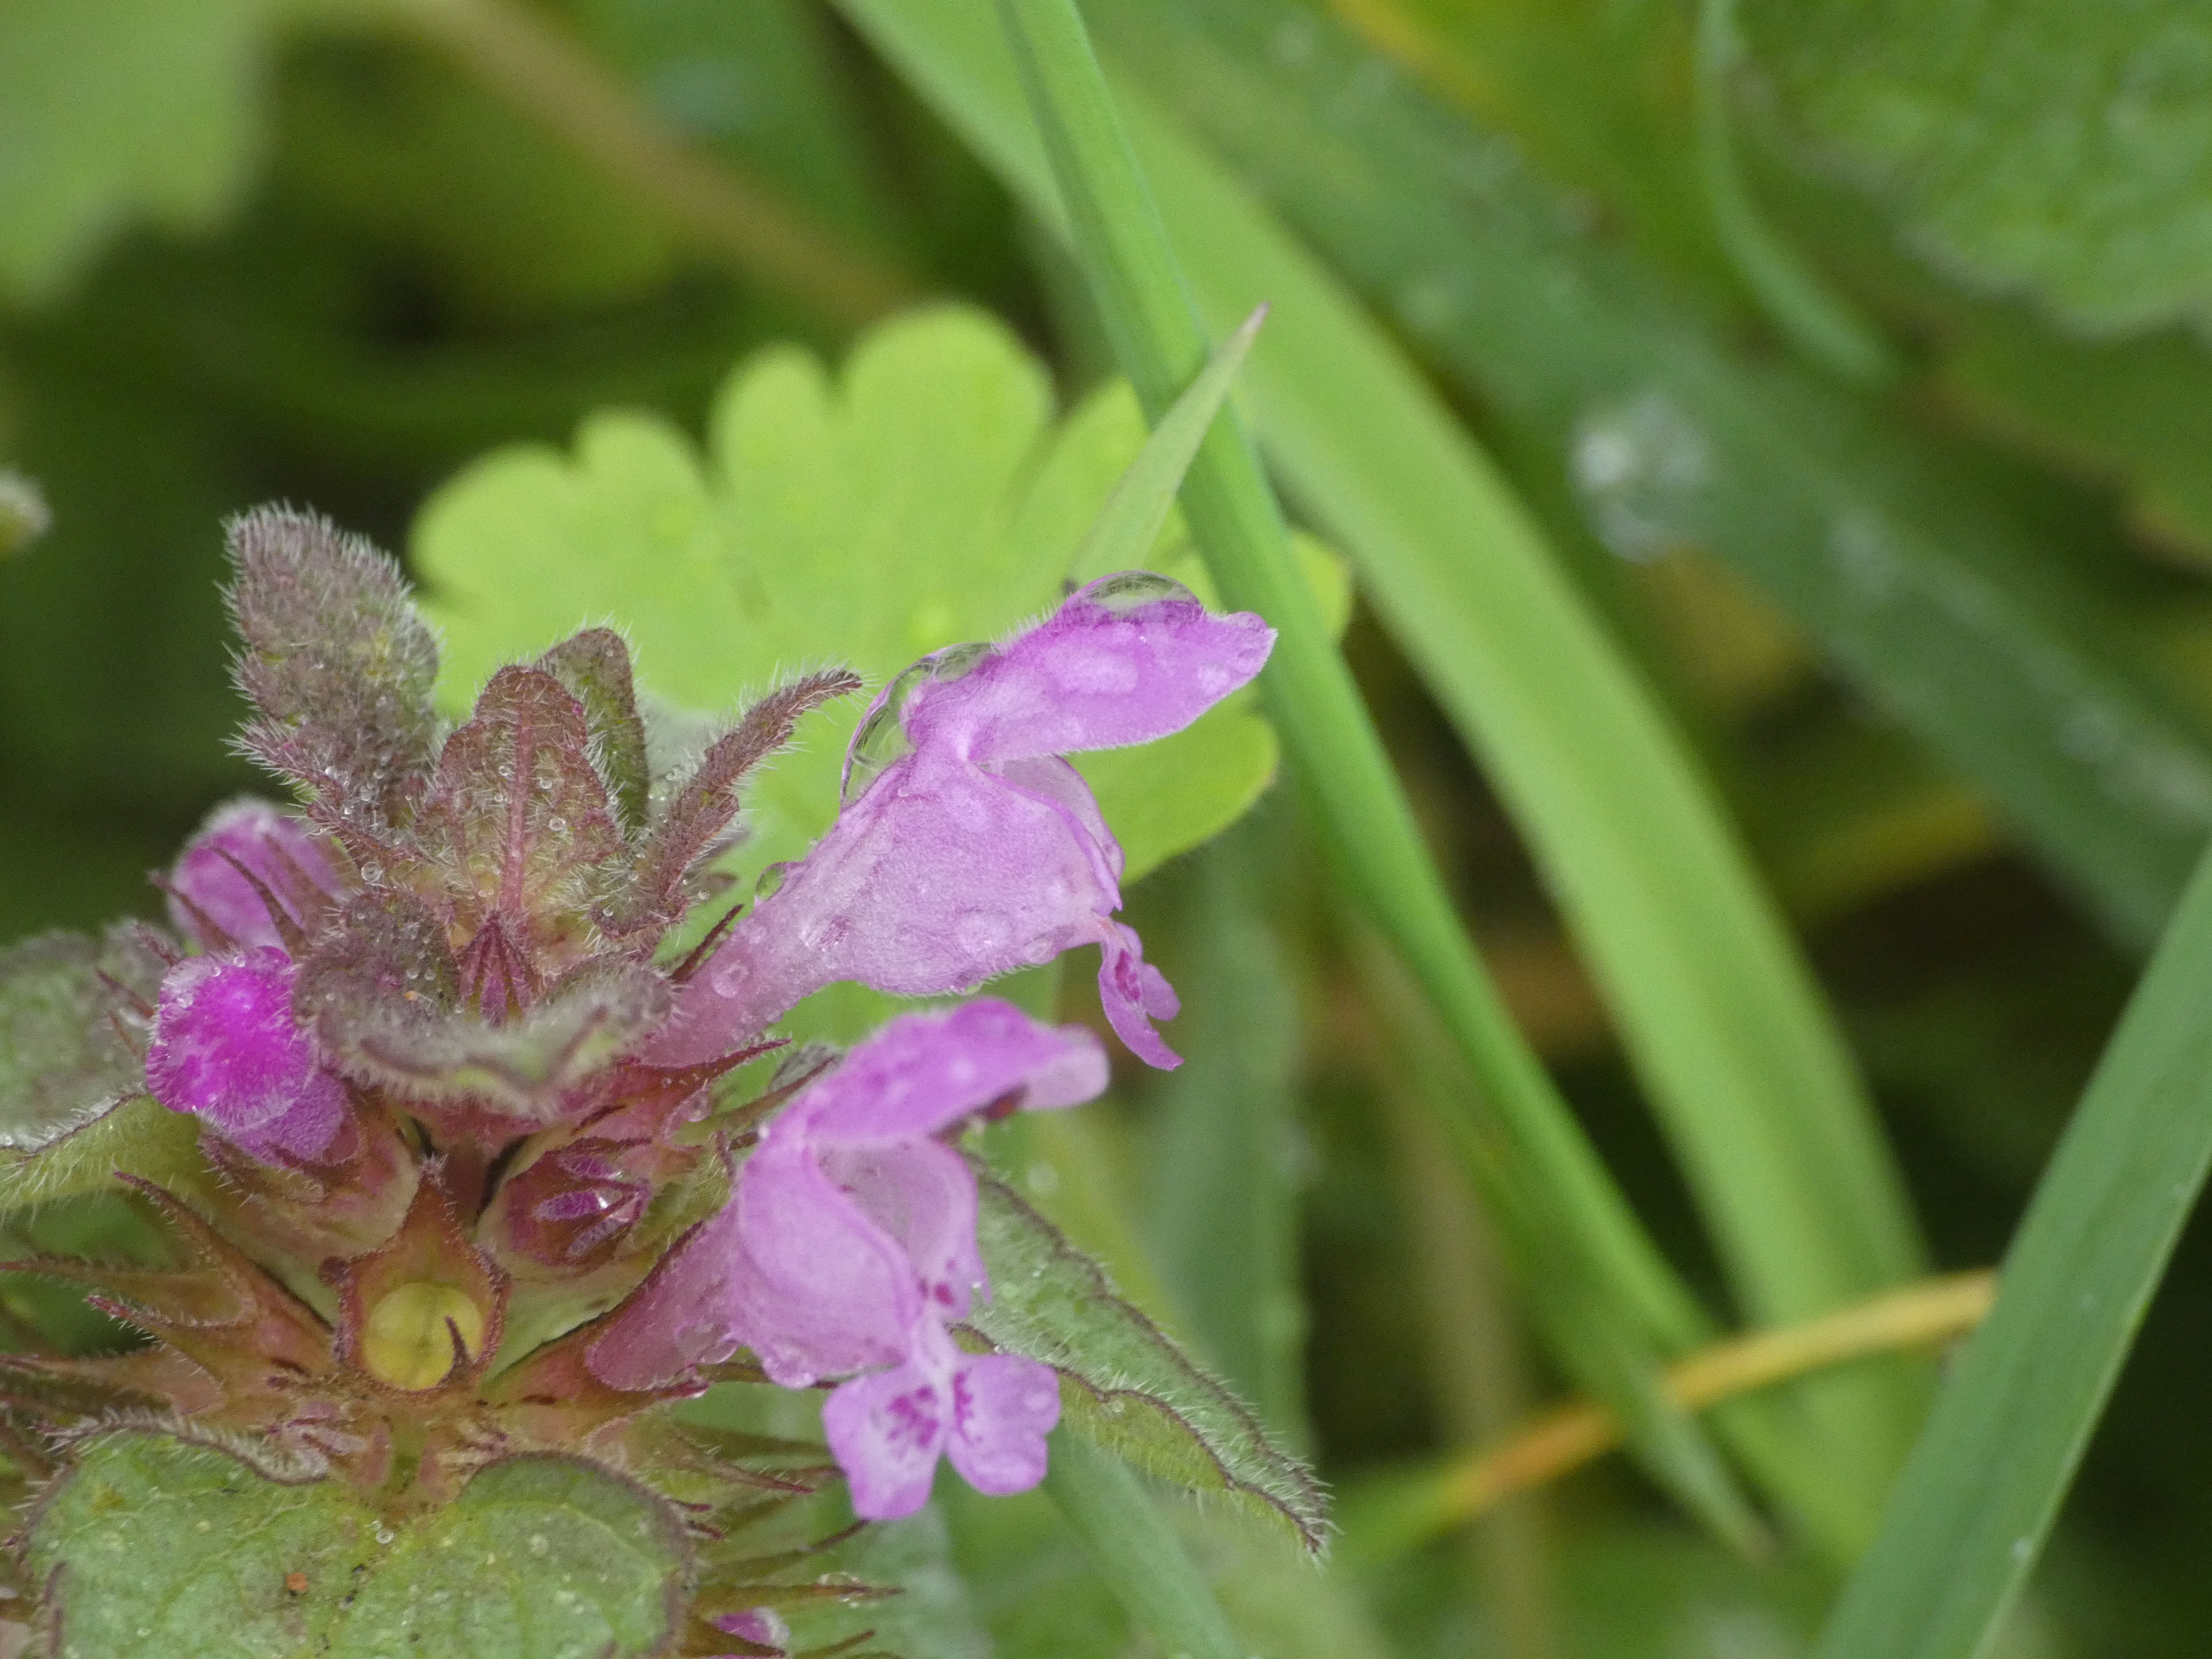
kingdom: Plantae
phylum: Tracheophyta
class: Magnoliopsida
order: Lamiales
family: Lamiaceae
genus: Lamium
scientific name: Lamium purpureum
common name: Rød tvetand
